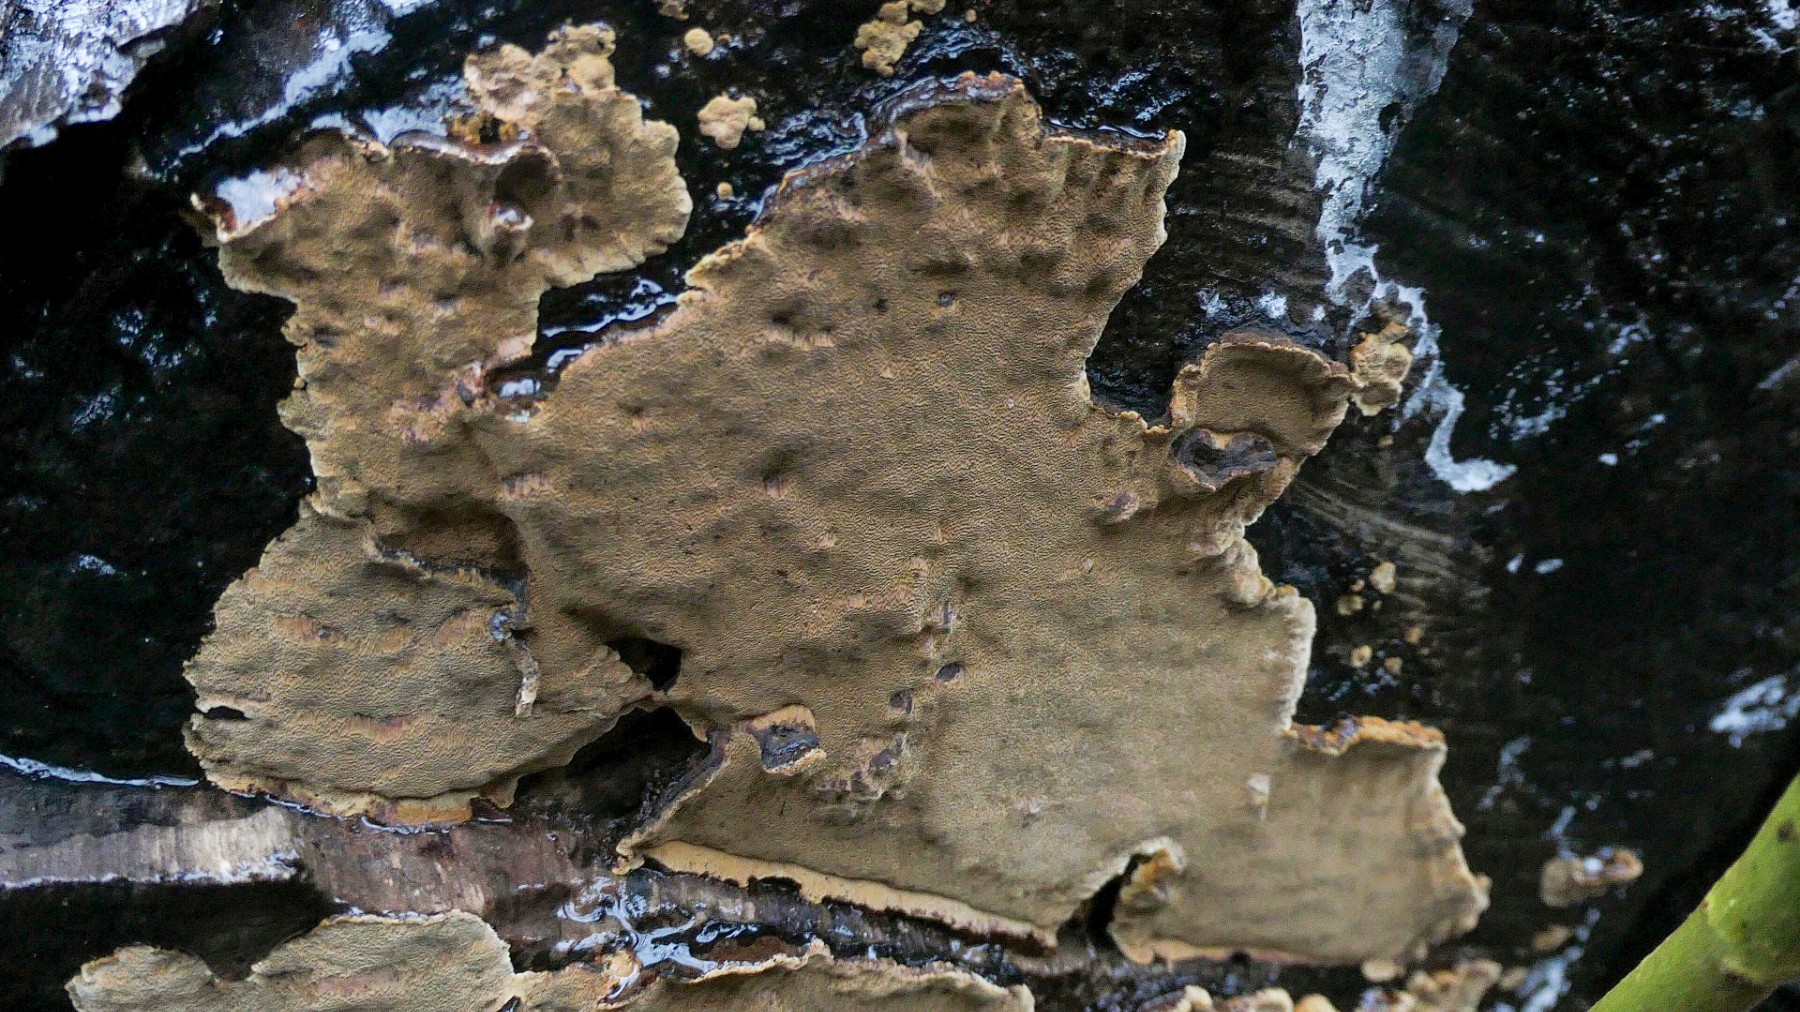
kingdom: Fungi
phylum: Basidiomycota
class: Agaricomycetes
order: Hymenochaetales
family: Hymenochaetaceae
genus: Phellinopsis
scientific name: Phellinopsis conchata
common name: pile-ildporesvamp
